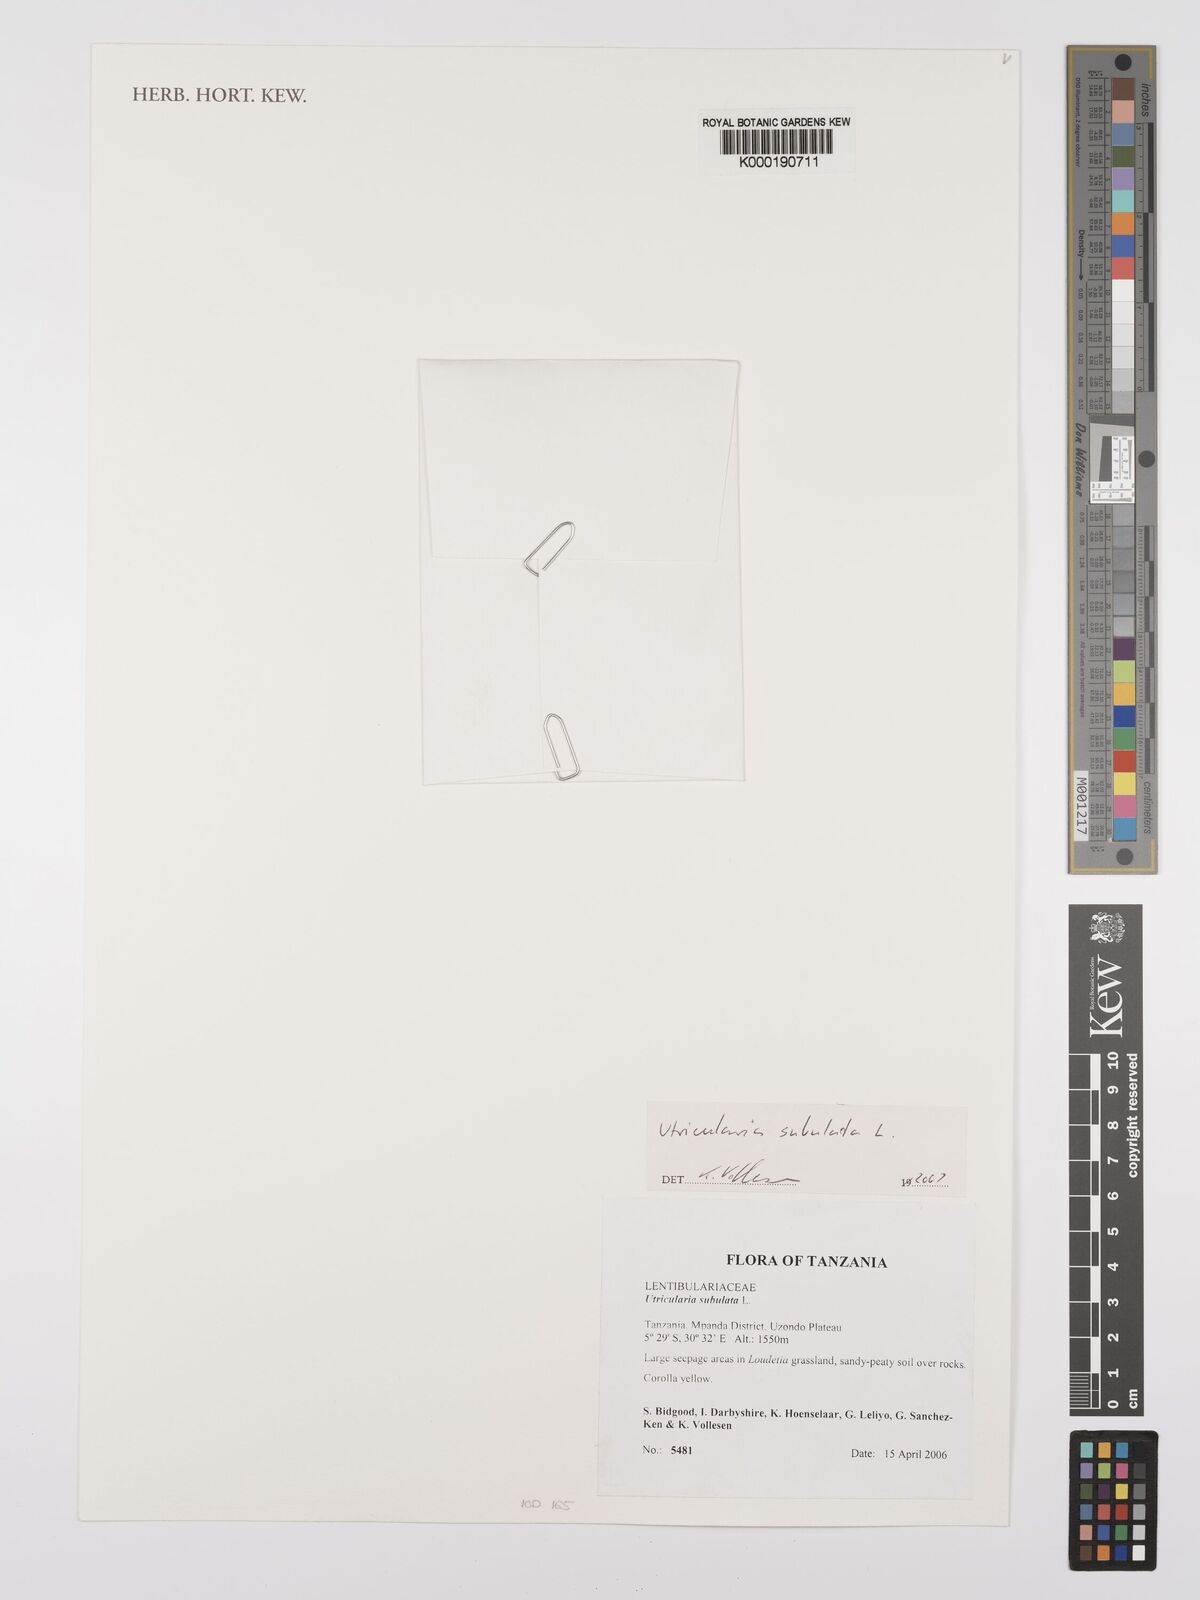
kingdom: Plantae
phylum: Tracheophyta
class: Magnoliopsida
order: Lamiales
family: Lentibulariaceae
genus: Utricularia
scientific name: Utricularia subulata
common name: Tiny bladderwort
